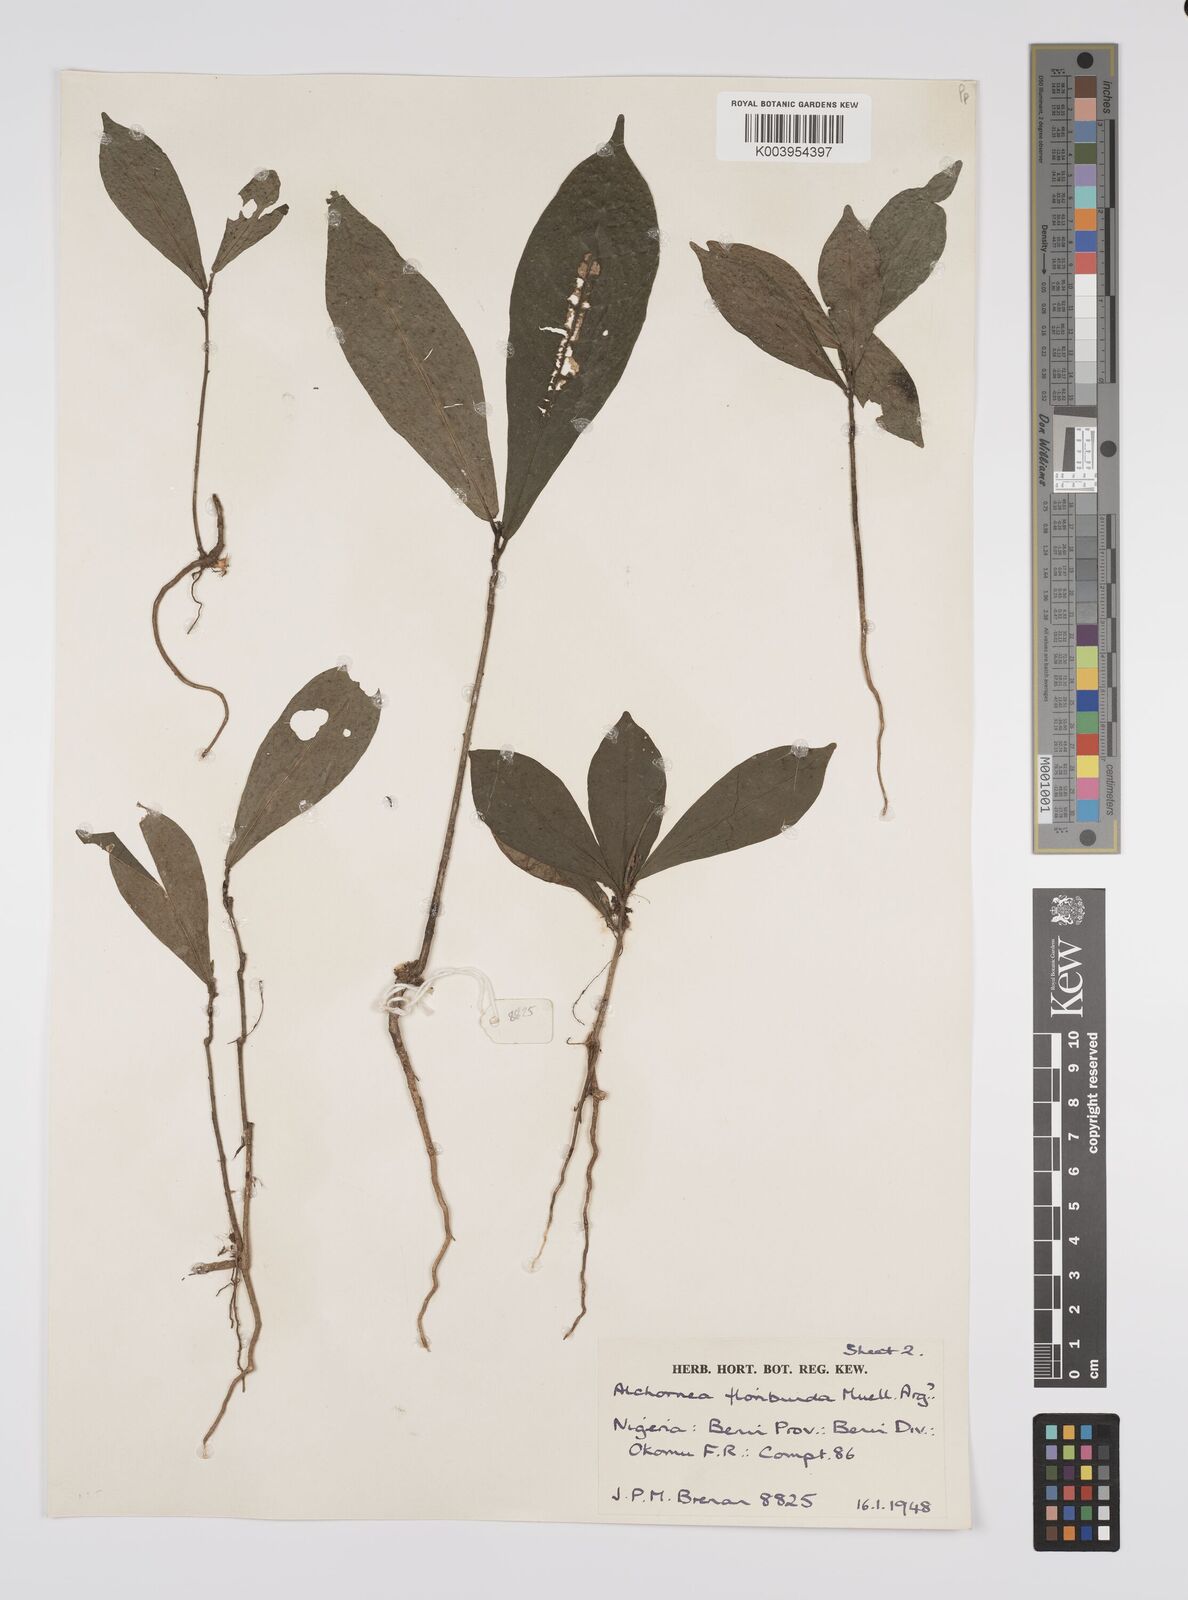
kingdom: Plantae
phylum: Tracheophyta
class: Magnoliopsida
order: Malpighiales
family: Euphorbiaceae
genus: Alchornea
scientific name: Alchornea floribunda
